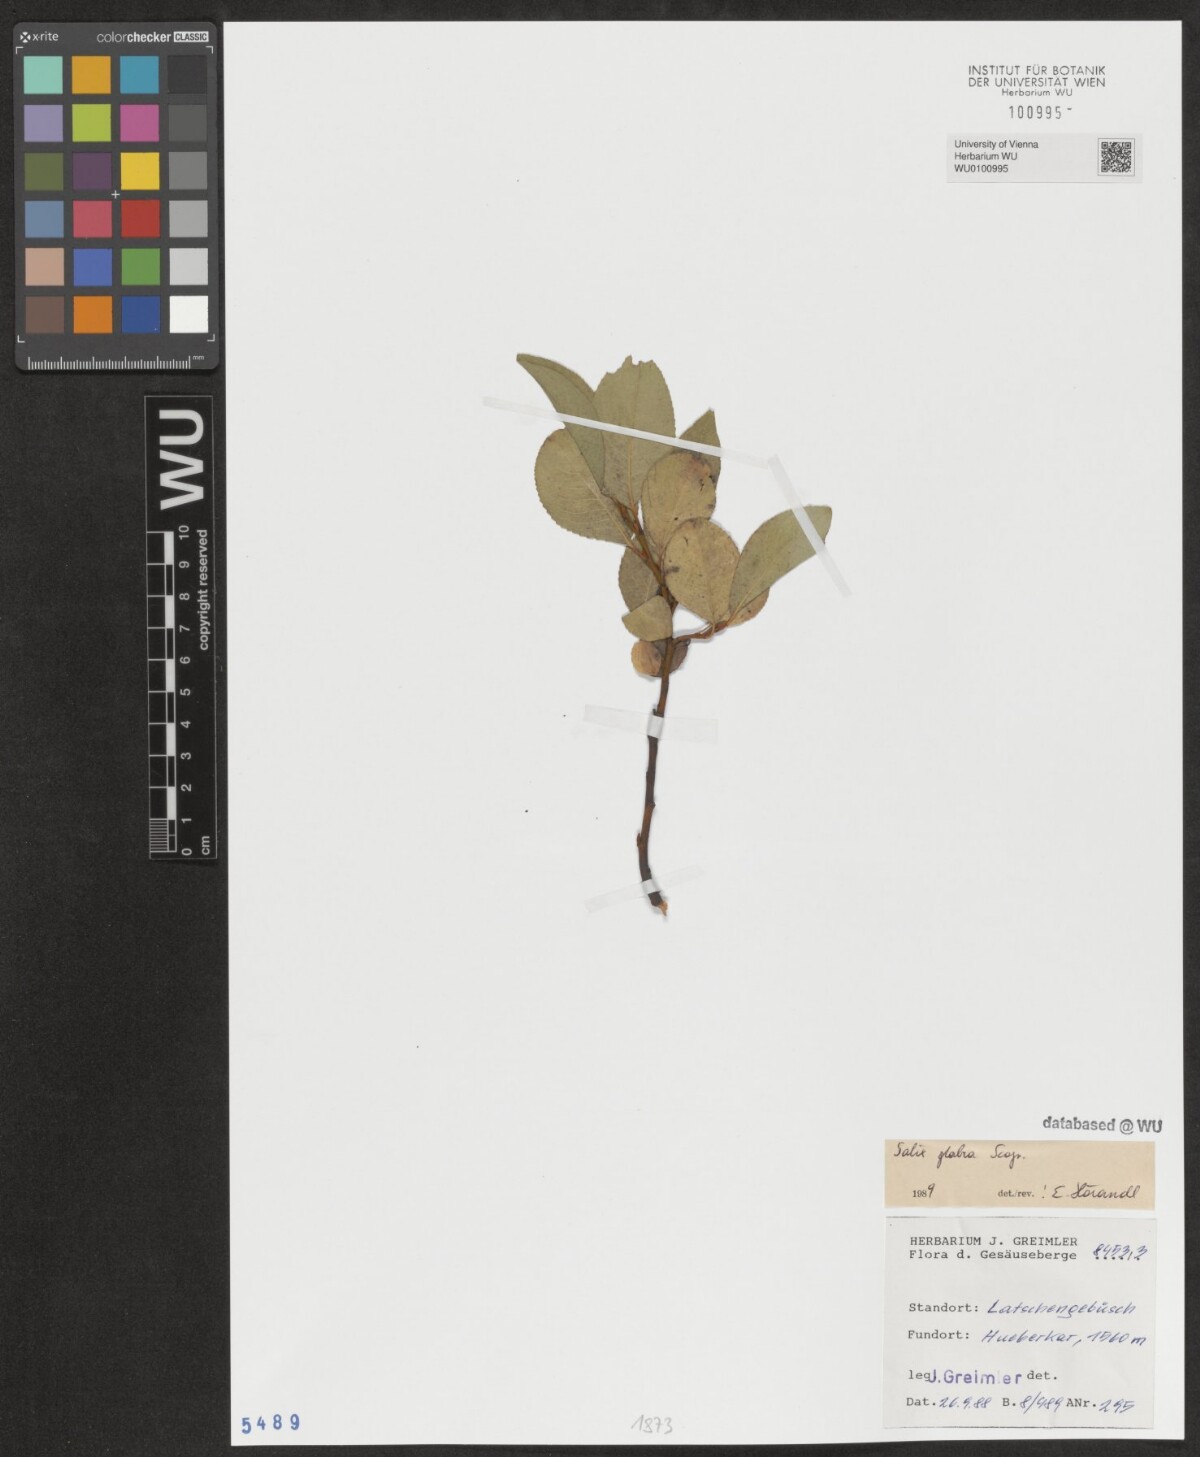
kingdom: Plantae
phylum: Tracheophyta
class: Magnoliopsida
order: Malpighiales
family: Salicaceae
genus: Salix
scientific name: Salix glabra
